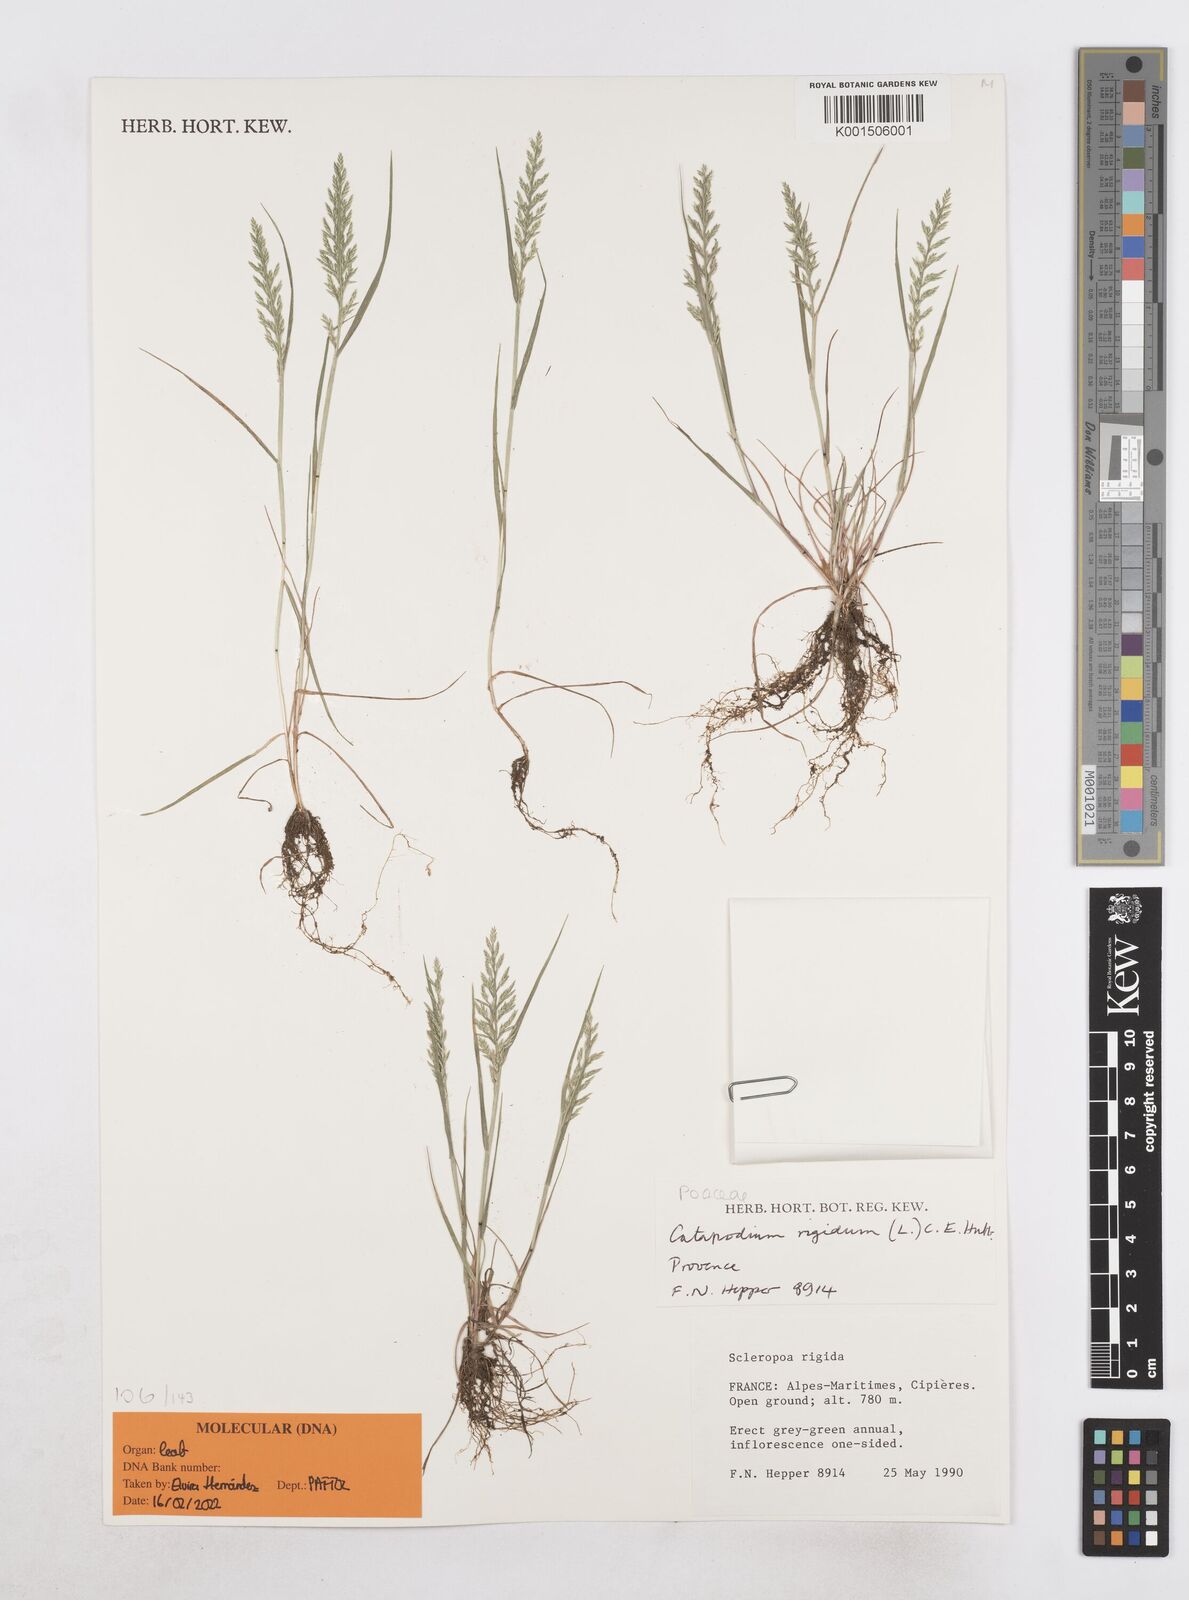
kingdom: Plantae
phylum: Tracheophyta
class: Liliopsida
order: Poales
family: Poaceae
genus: Catapodium
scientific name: Catapodium rigidum
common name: Fern-grass
